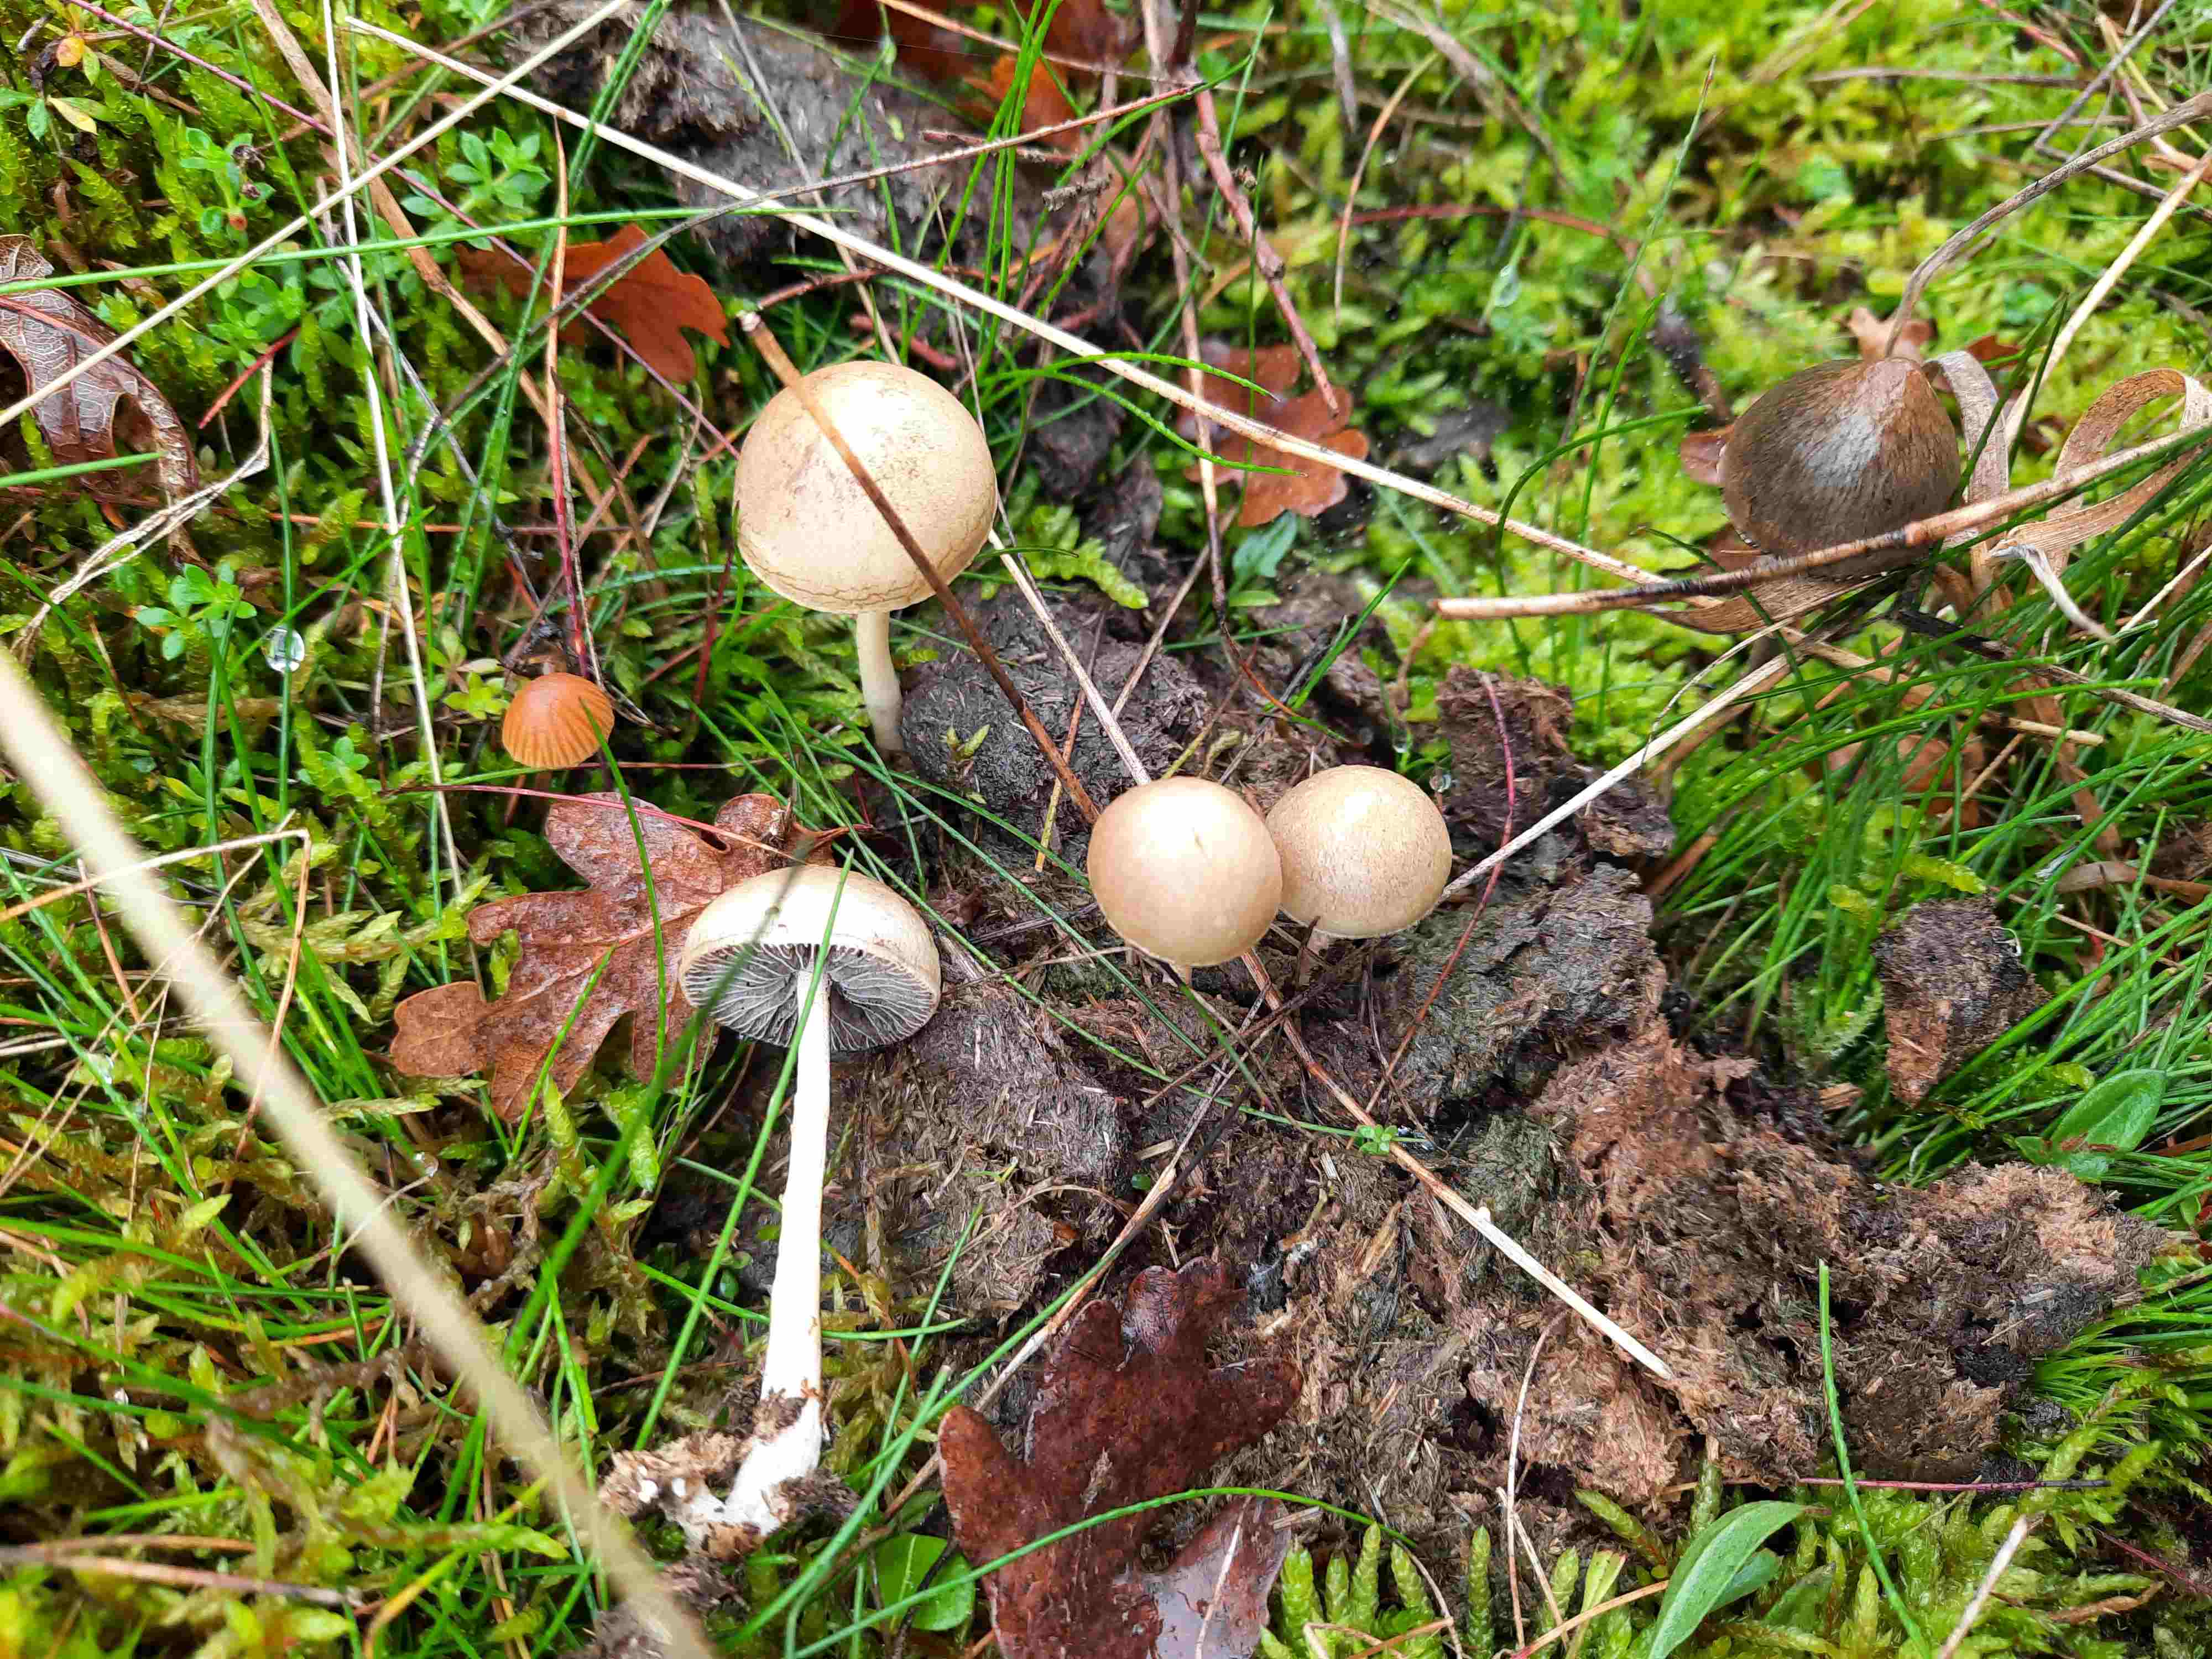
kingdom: Fungi
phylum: Basidiomycota
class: Agaricomycetes
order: Agaricales
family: Strophariaceae
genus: Protostropharia
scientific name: Protostropharia semiglobata
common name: halvkugleformet bredblad
